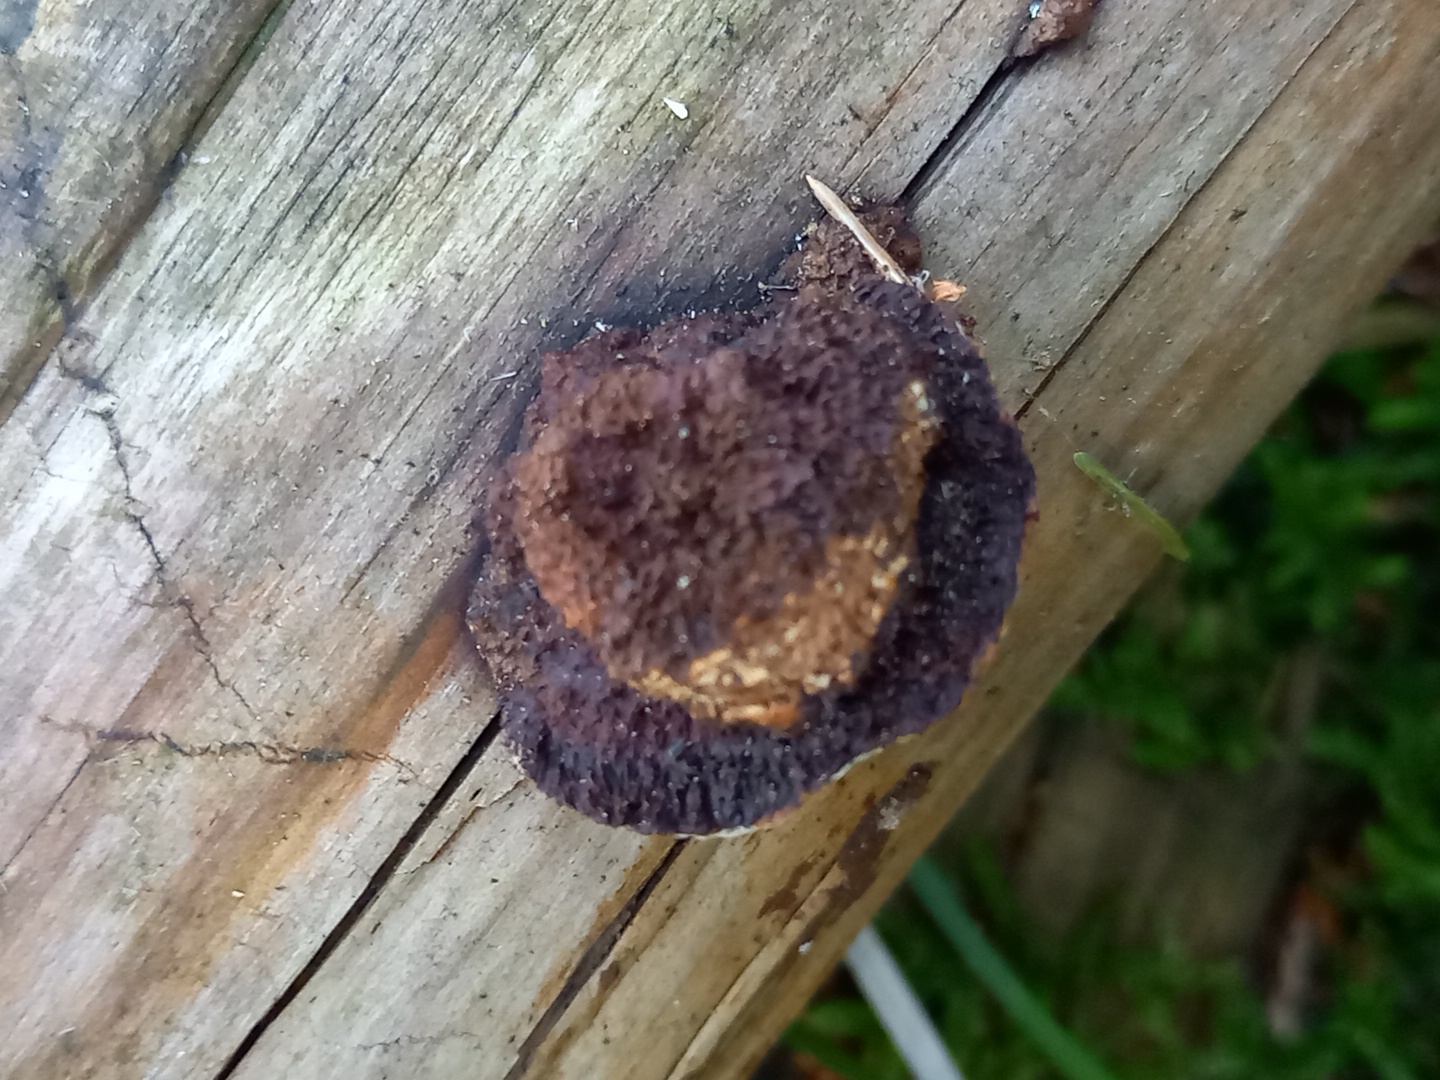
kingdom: Fungi
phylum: Basidiomycota
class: Agaricomycetes
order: Gloeophyllales
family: Gloeophyllaceae
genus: Gloeophyllum
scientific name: Gloeophyllum sepiarium
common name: fyrre-korkhat
